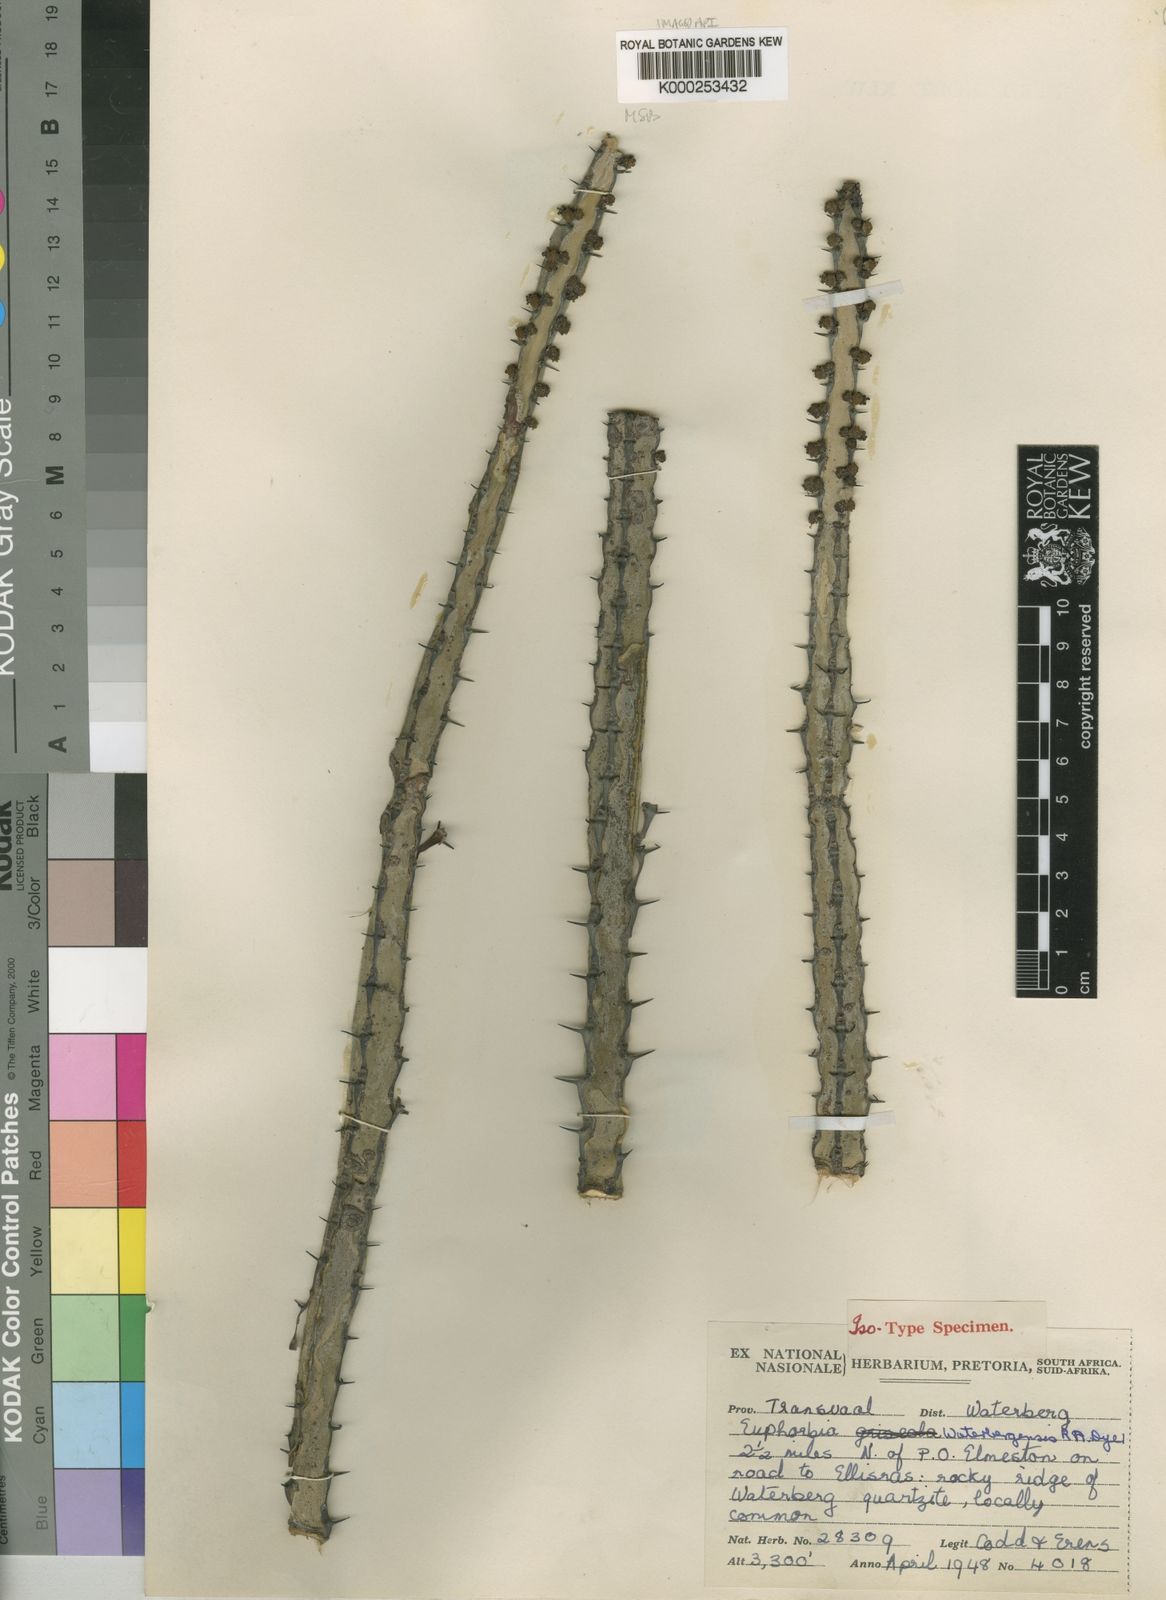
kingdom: Plantae
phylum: Tracheophyta
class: Magnoliopsida
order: Malpighiales
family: Euphorbiaceae
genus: Euphorbia
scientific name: Euphorbia waterbergensis
